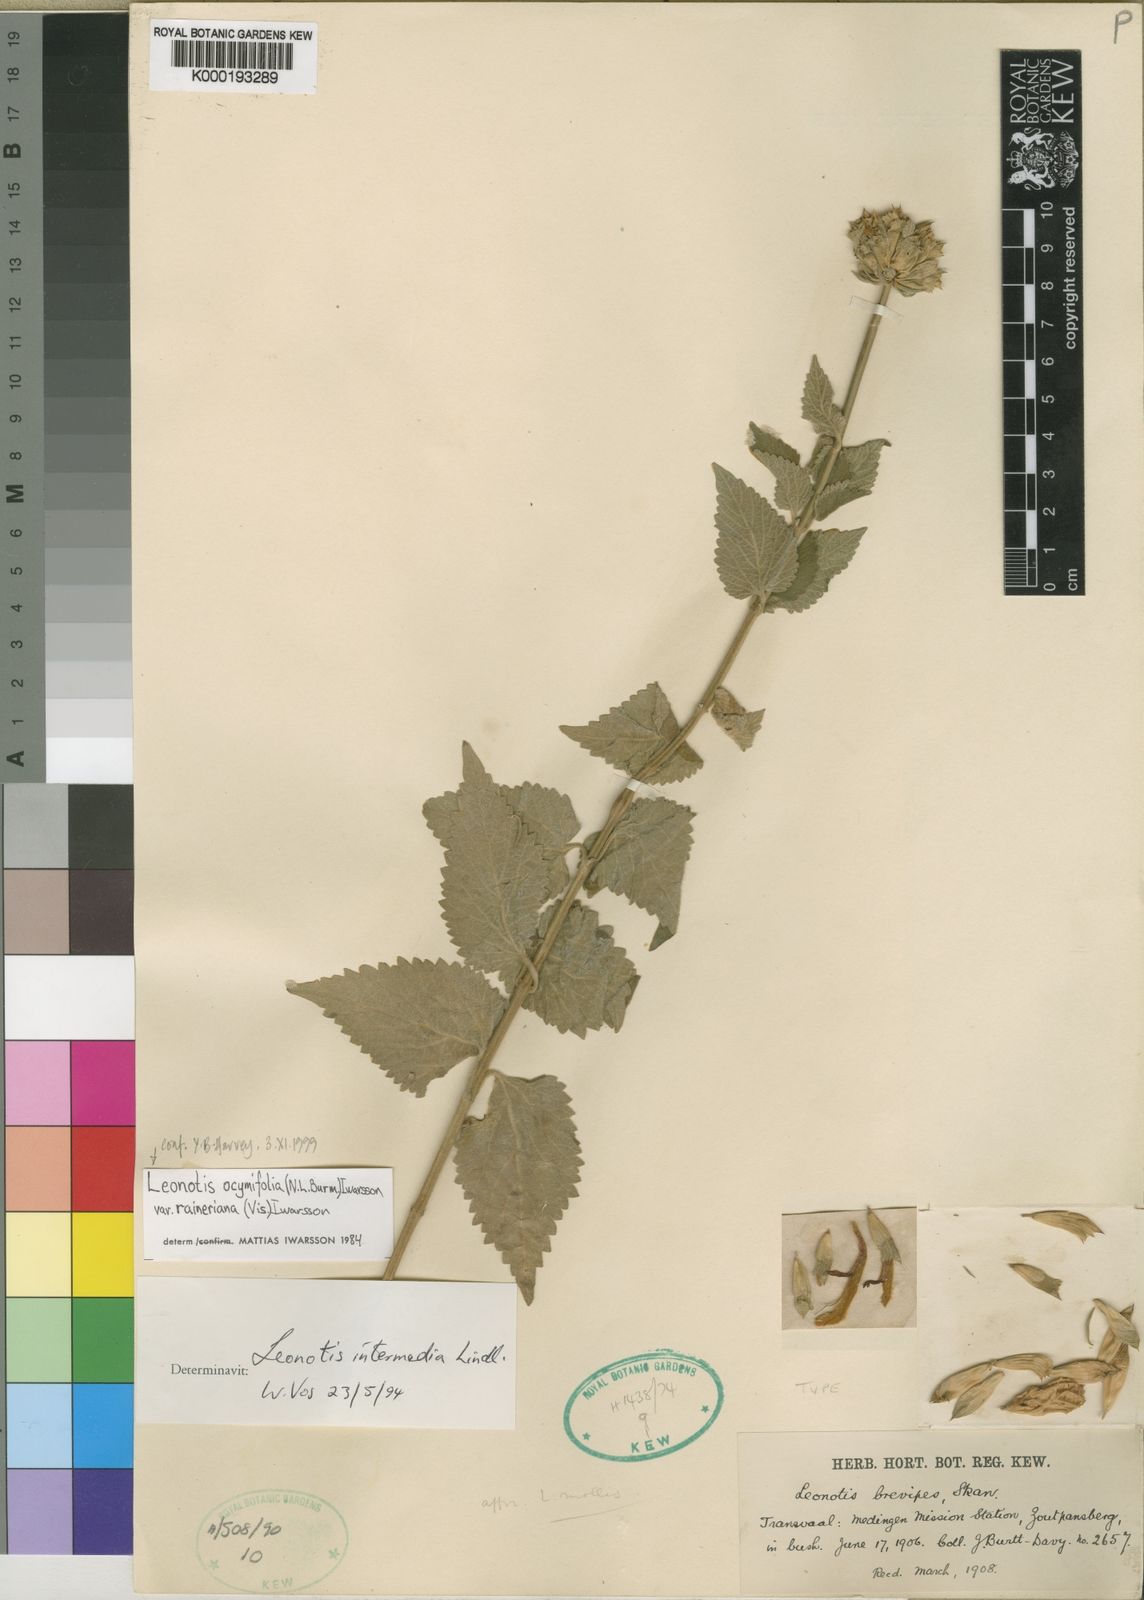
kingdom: Plantae
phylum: Tracheophyta
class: Magnoliopsida
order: Lamiales
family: Lamiaceae
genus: Leonotis
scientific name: Leonotis ocymifolia
